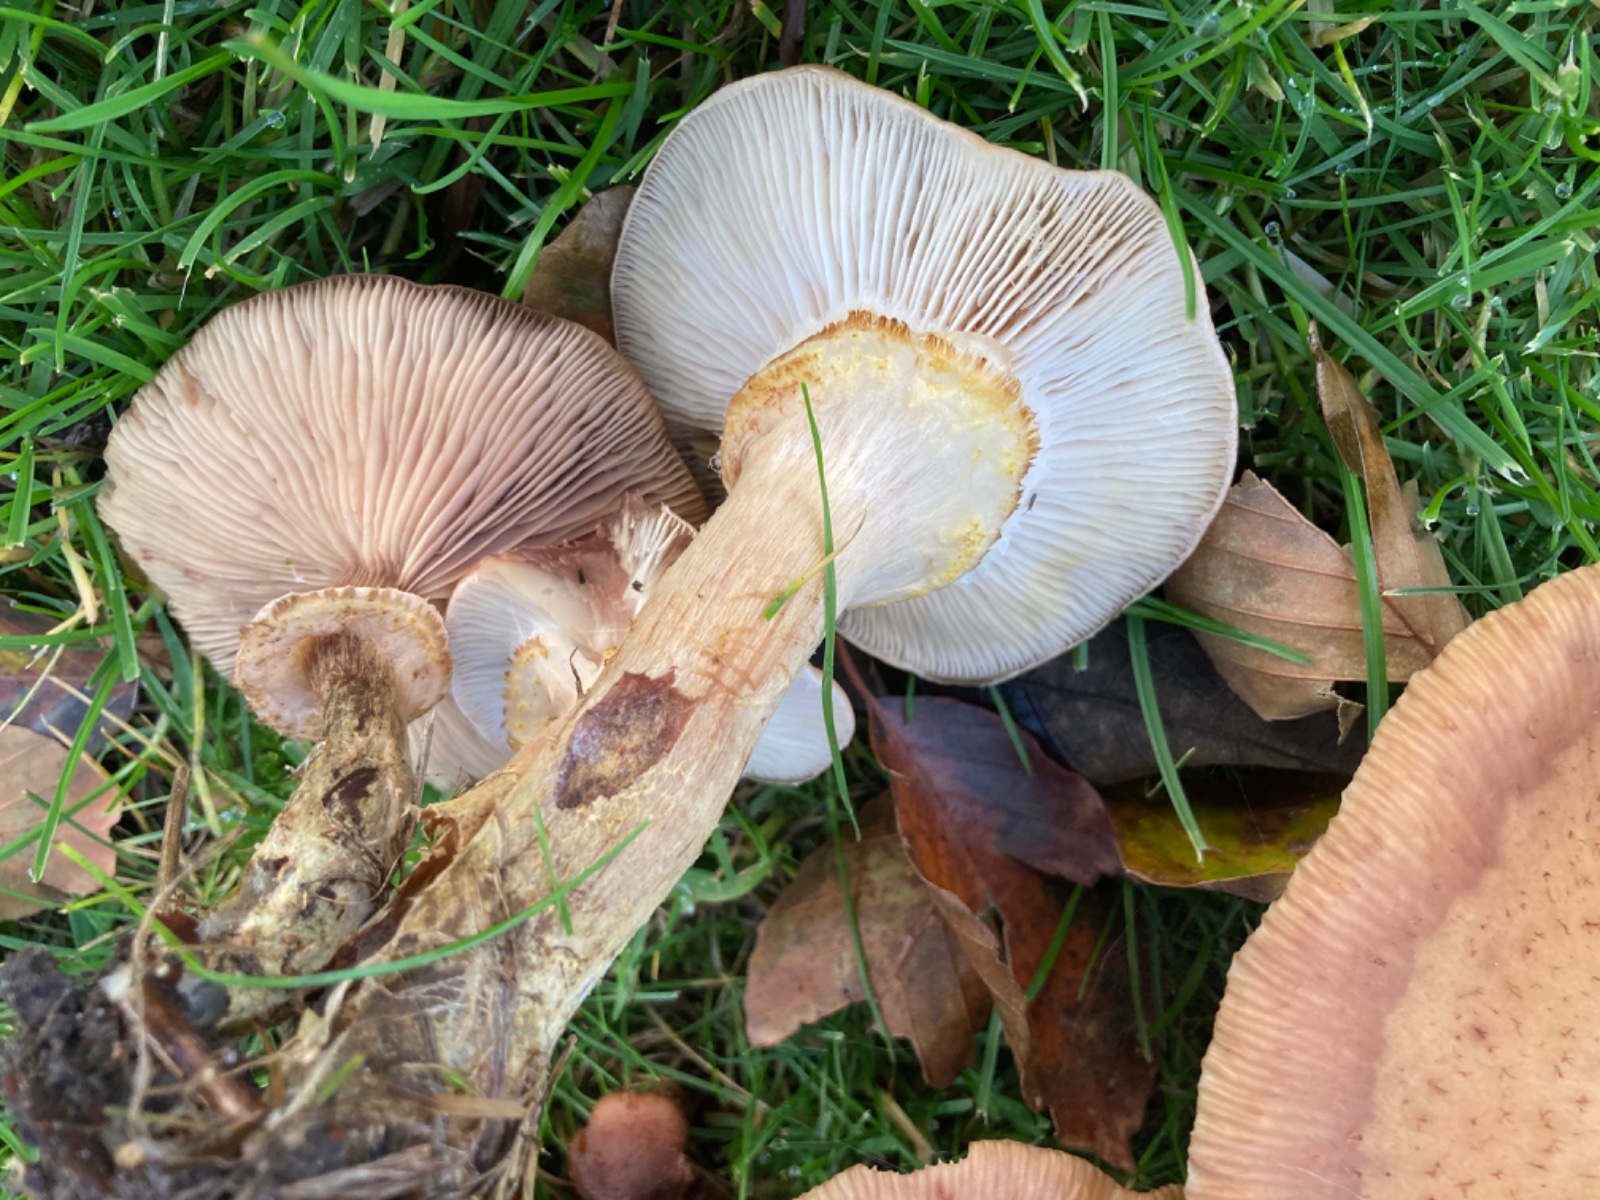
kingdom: Fungi
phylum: Basidiomycota
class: Agaricomycetes
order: Agaricales
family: Physalacriaceae
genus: Armillaria
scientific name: Armillaria
